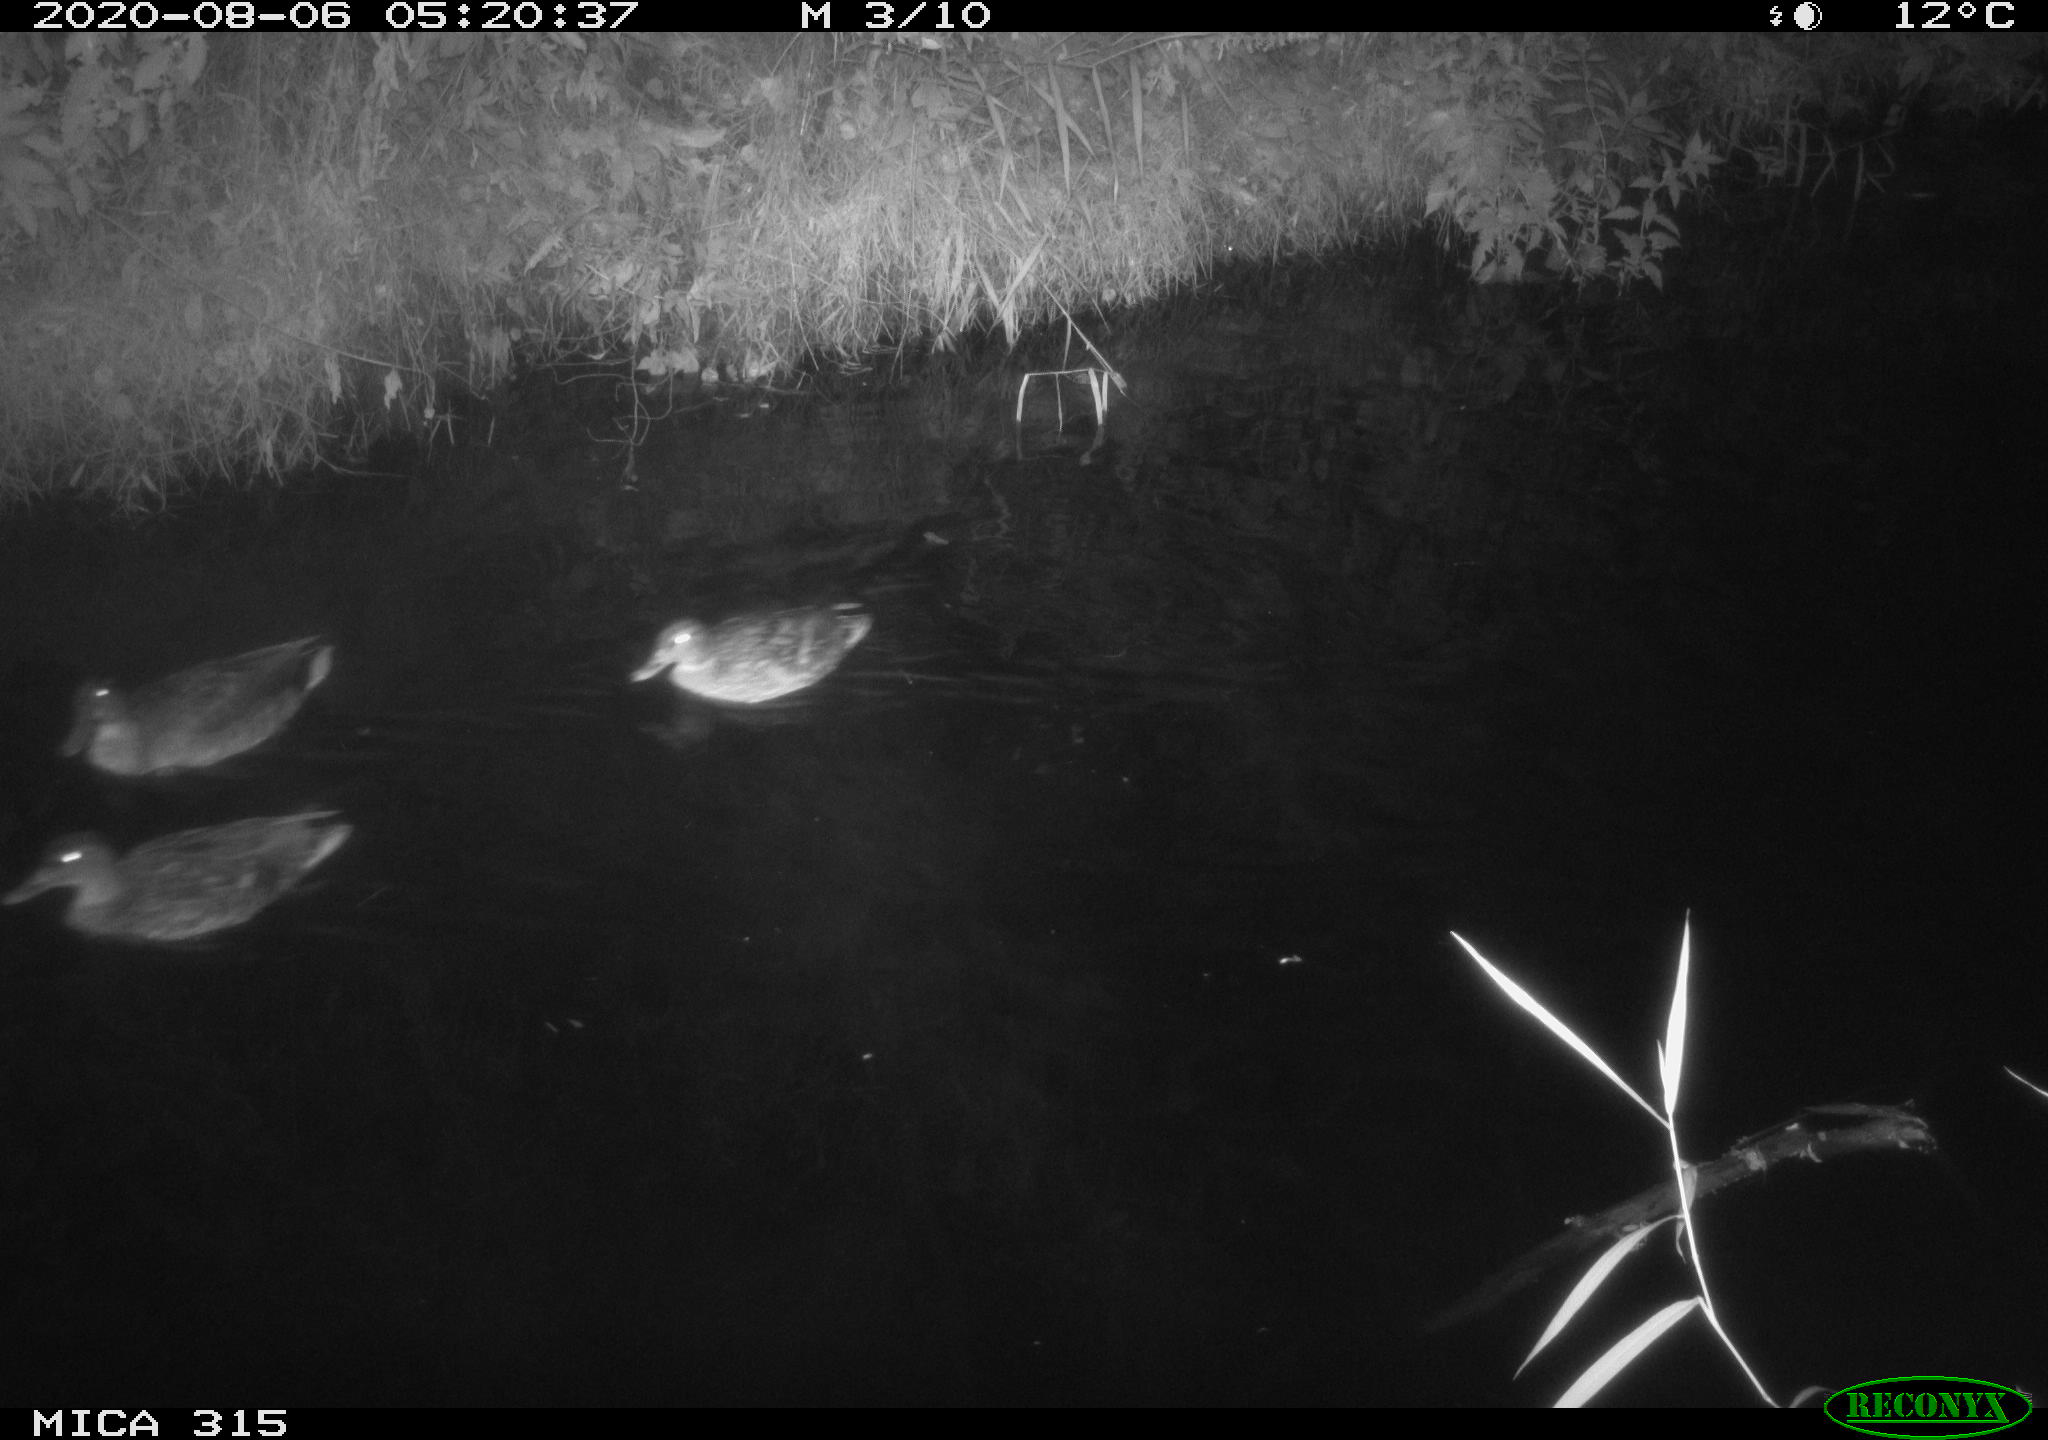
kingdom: Animalia
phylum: Chordata
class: Aves
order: Anseriformes
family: Anatidae
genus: Anas
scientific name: Anas platyrhynchos
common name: Mallard
